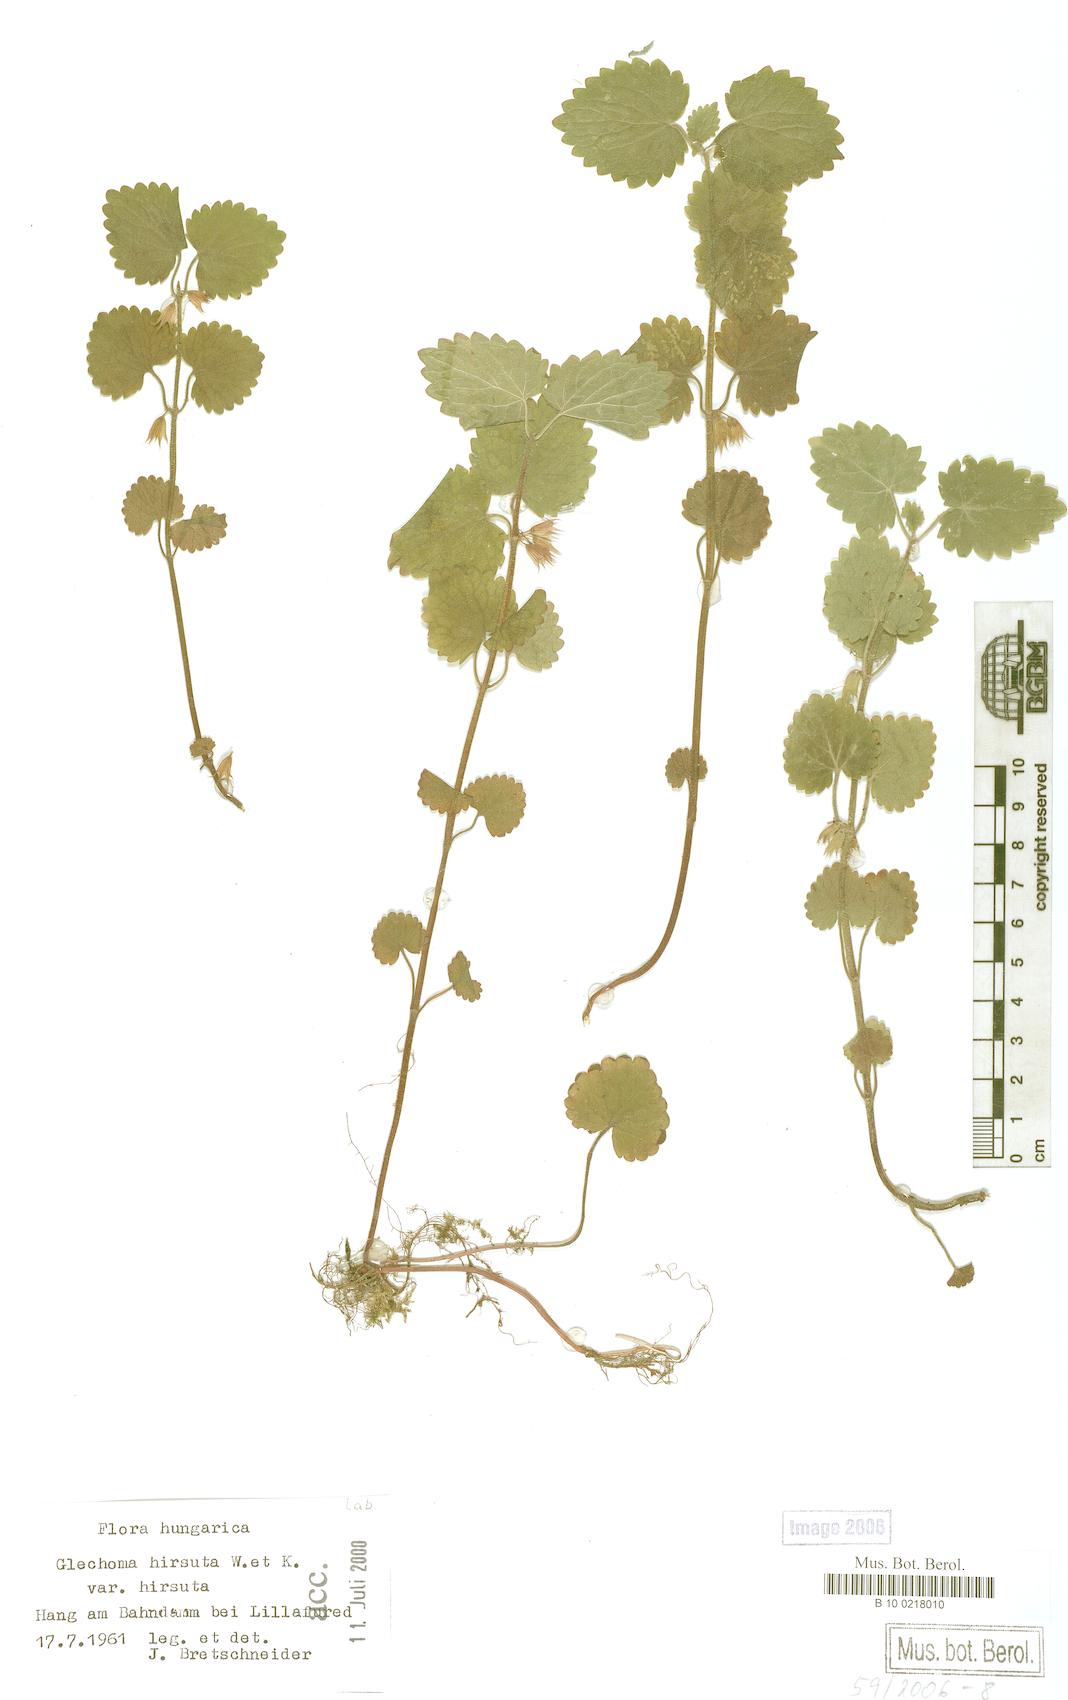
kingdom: Plantae
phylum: Tracheophyta
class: Magnoliopsida
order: Lamiales
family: Lamiaceae
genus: Glechoma
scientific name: Glechoma hirsuta
